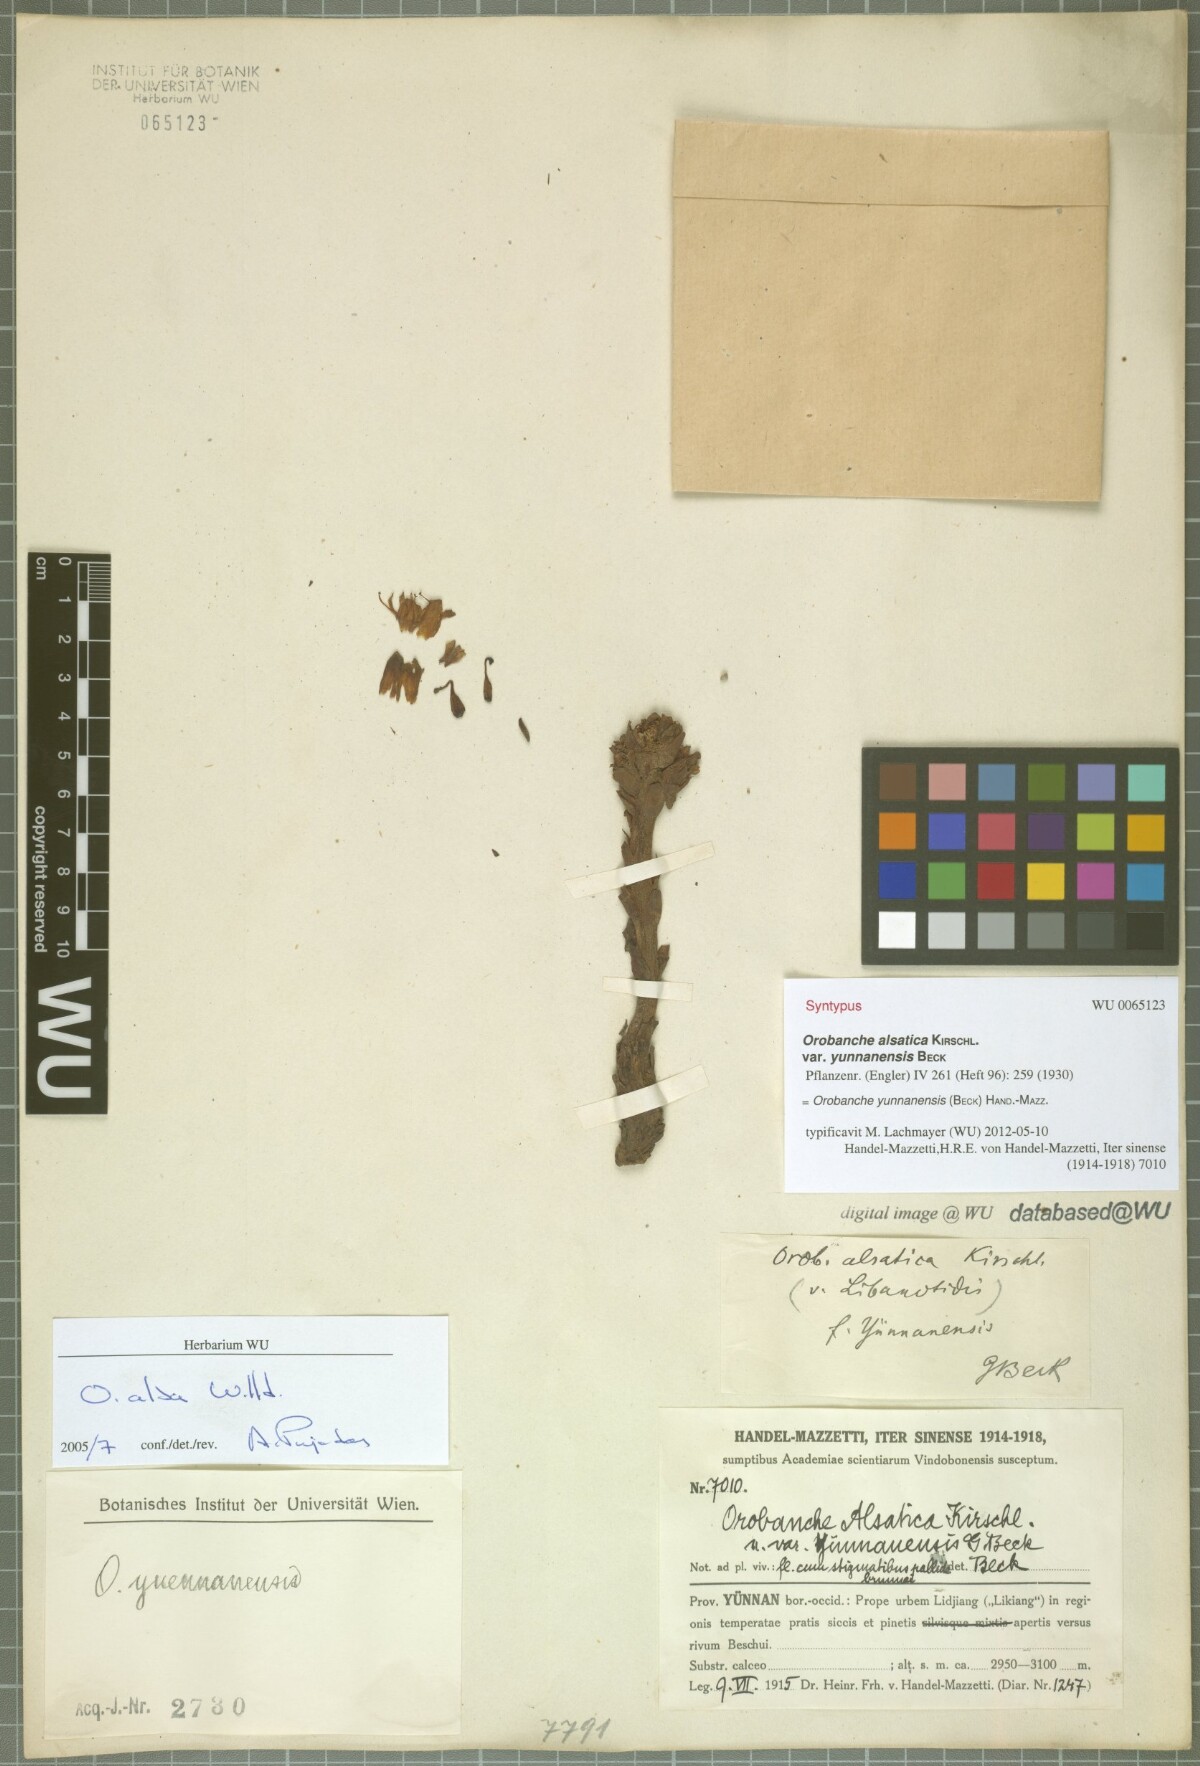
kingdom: Plantae
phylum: Tracheophyta
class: Magnoliopsida
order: Lamiales
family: Orobanchaceae
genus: Orobanche
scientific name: Orobanche yunnanensis
